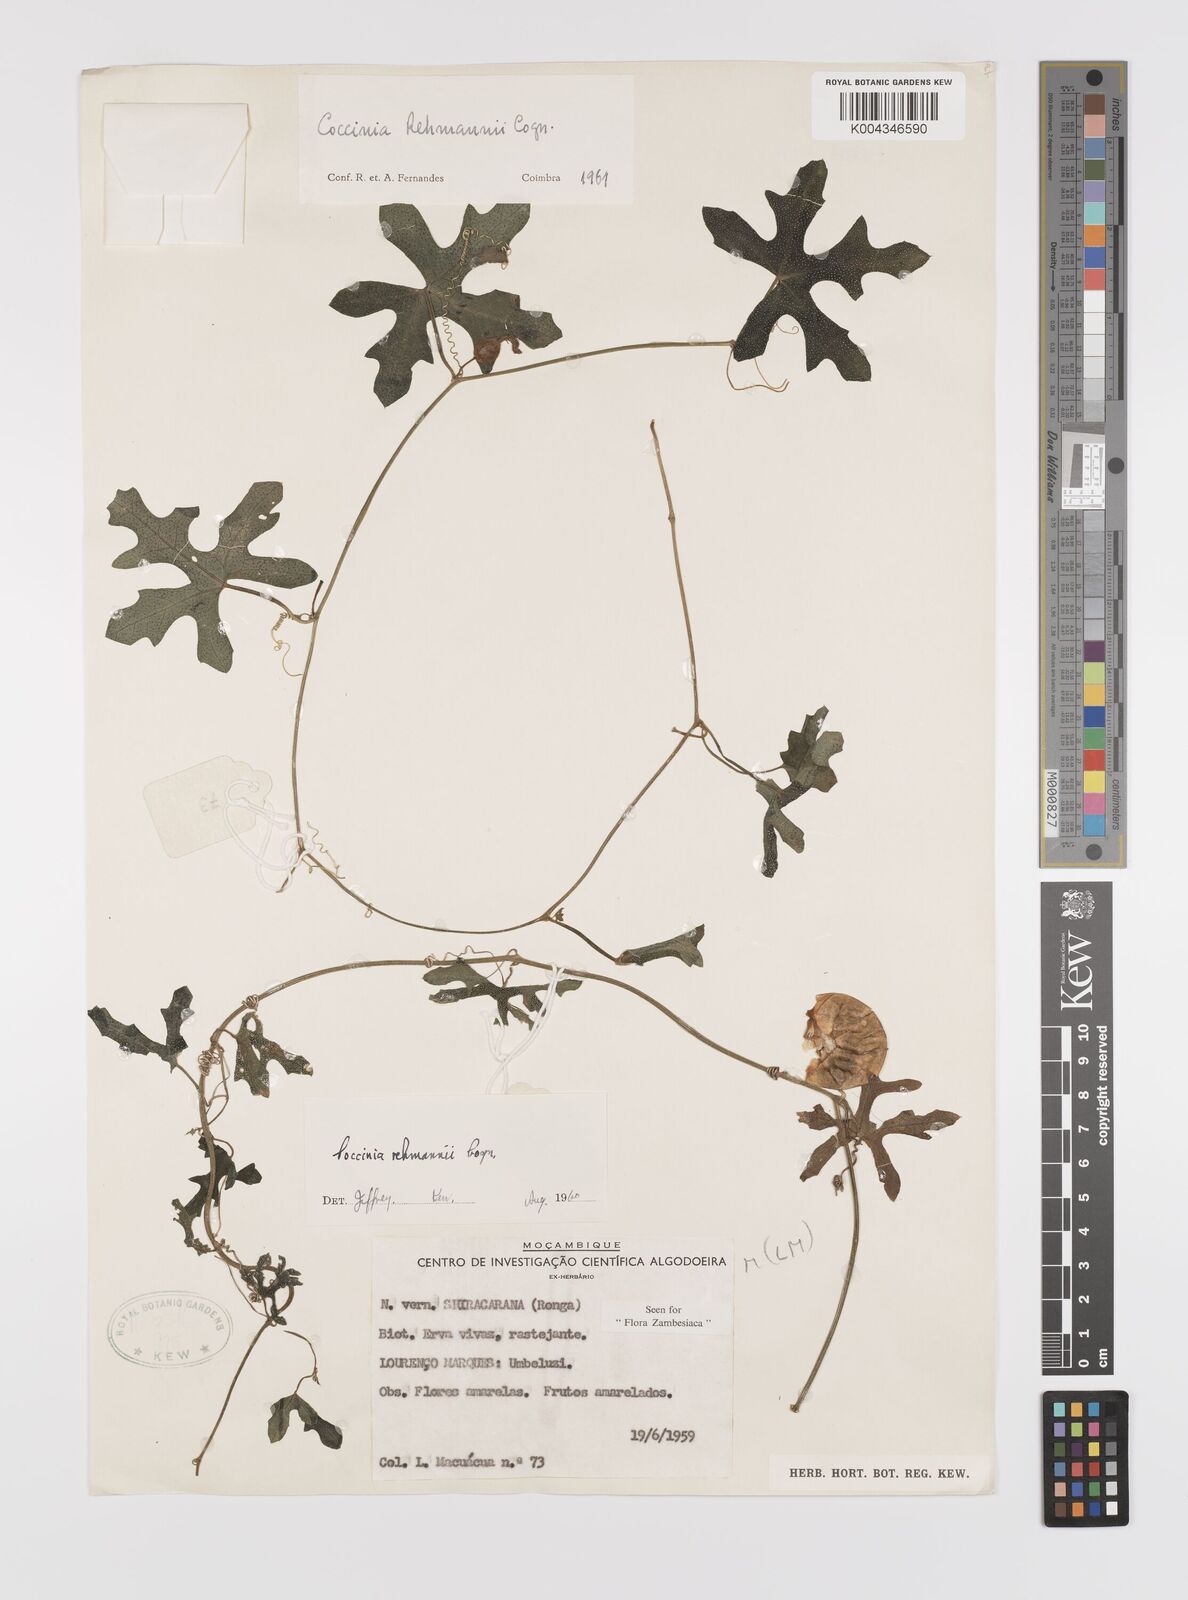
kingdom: Plantae
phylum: Tracheophyta
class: Magnoliopsida
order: Cucurbitales
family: Cucurbitaceae
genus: Coccinia
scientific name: Coccinia rehmannii
